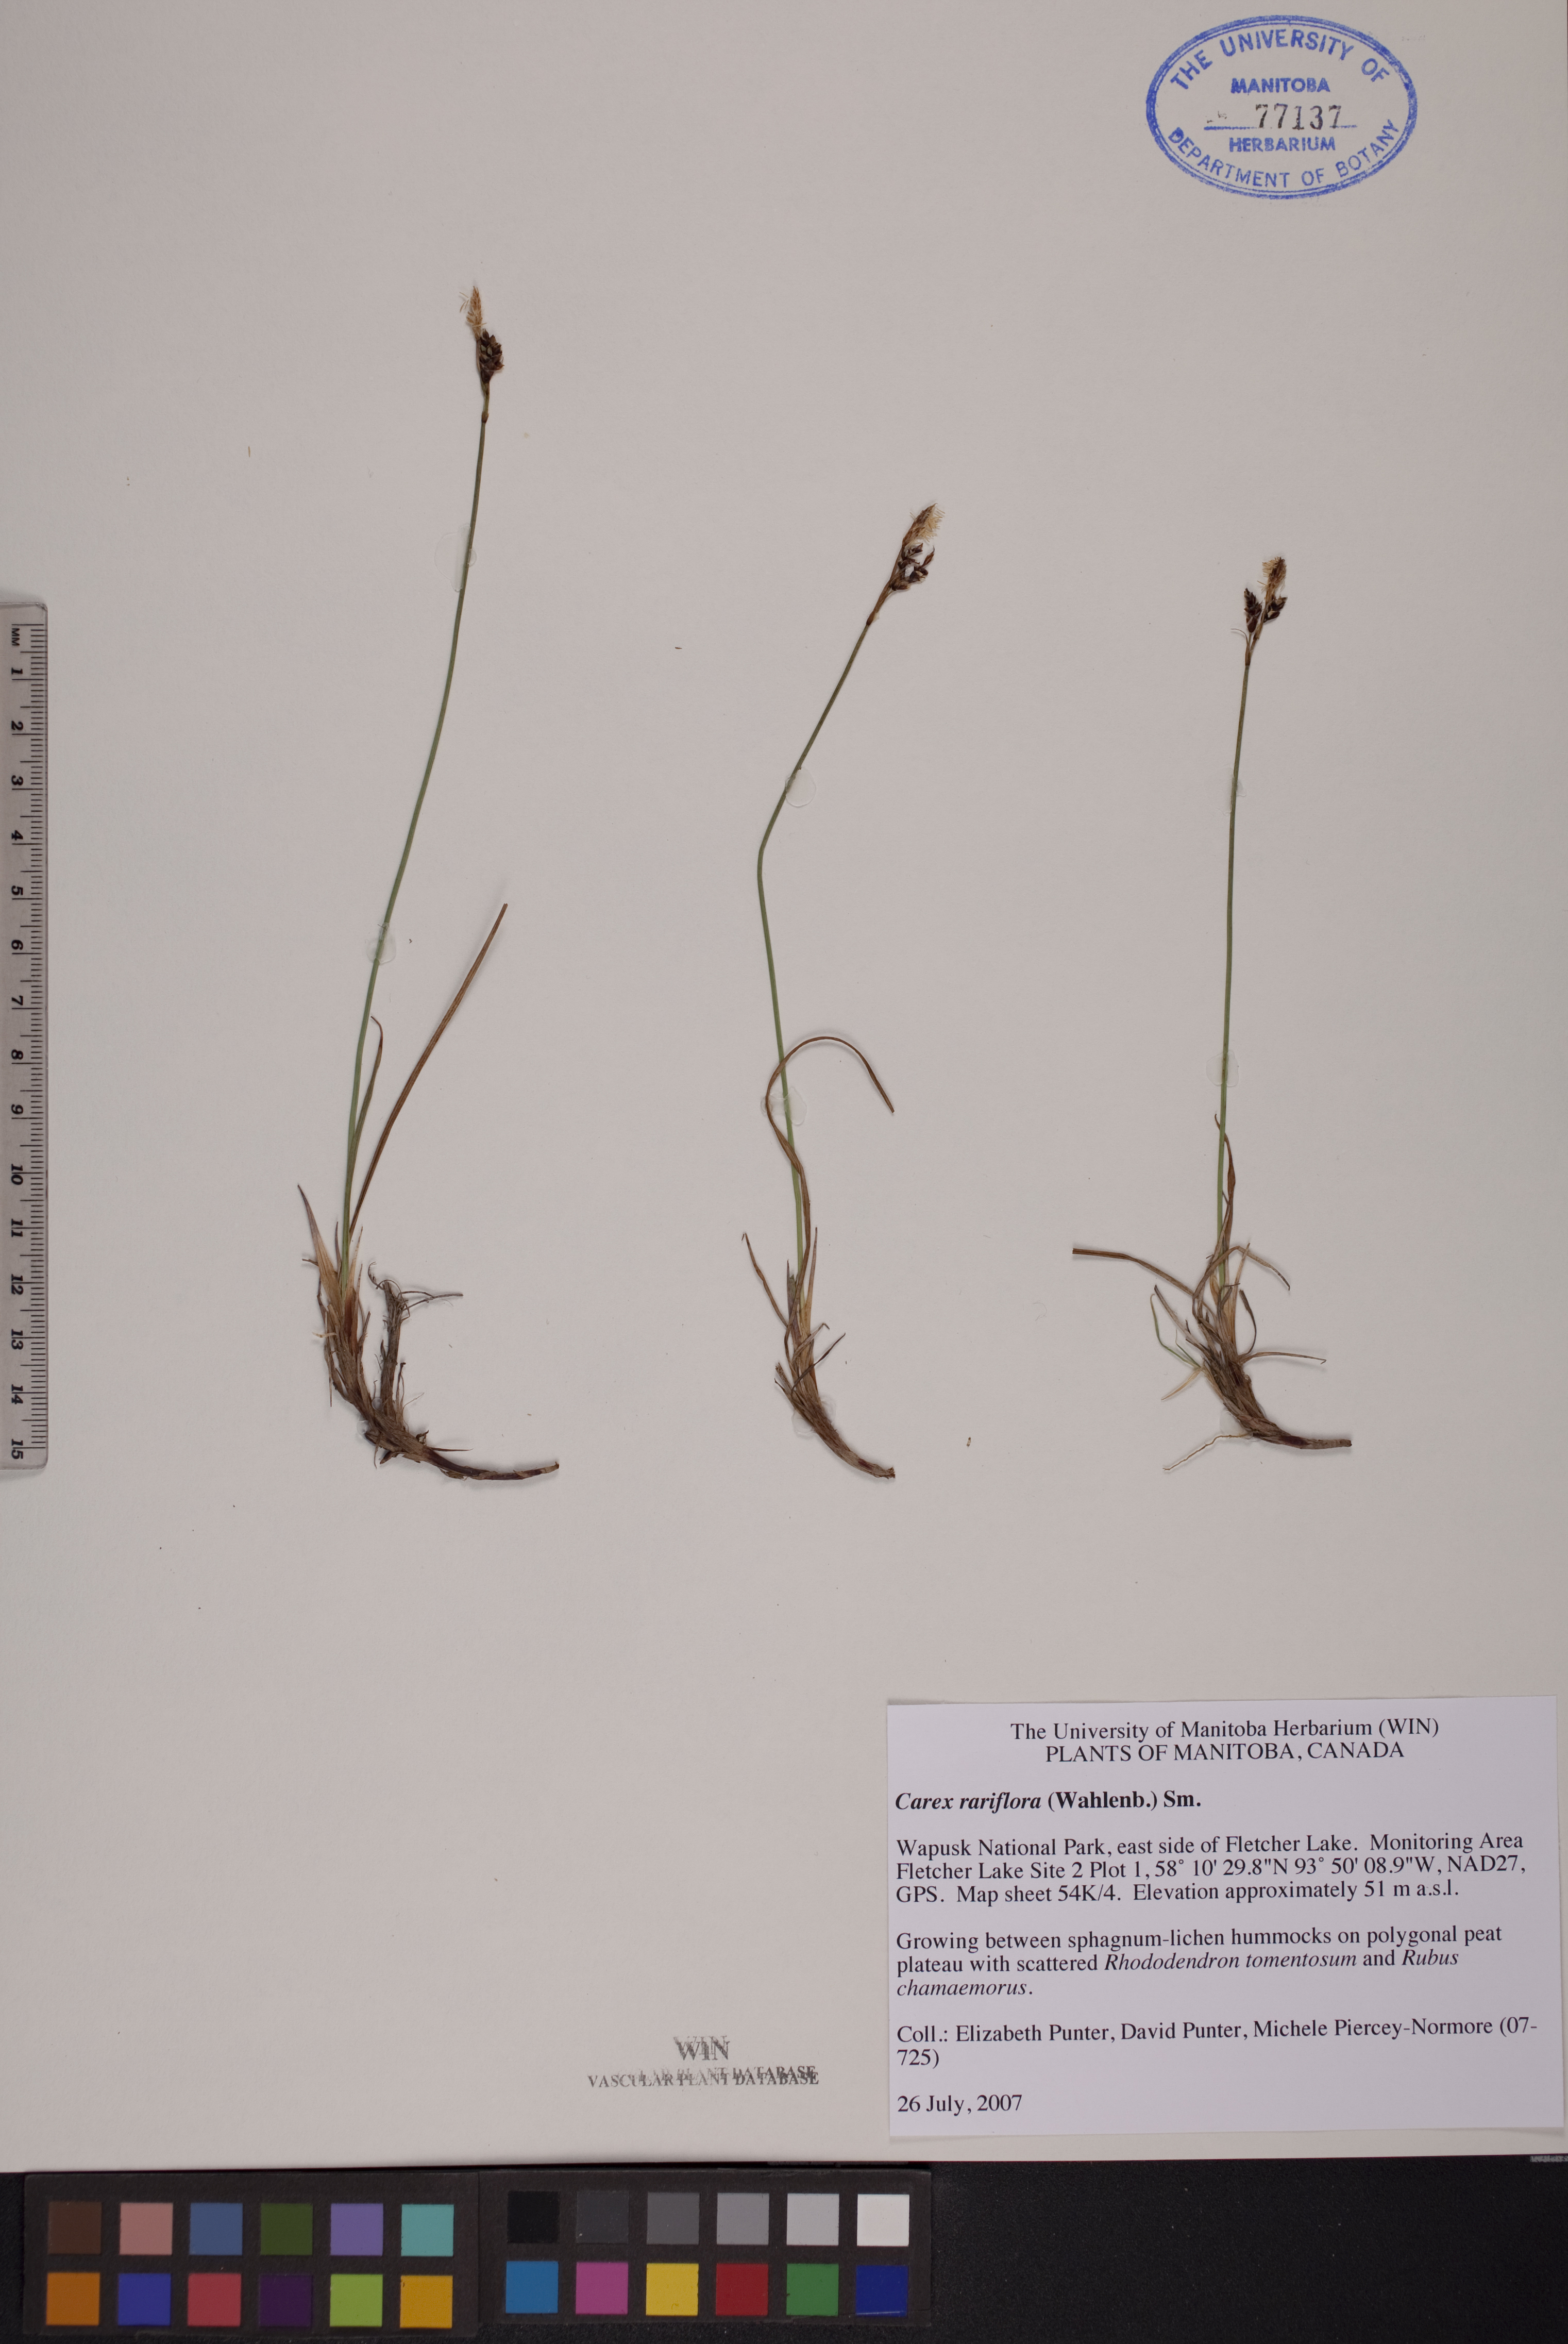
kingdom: Plantae
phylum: Tracheophyta
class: Liliopsida
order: Poales
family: Cyperaceae
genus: Carex
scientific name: Carex rariflora
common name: Loose-flowered alpine sedge
